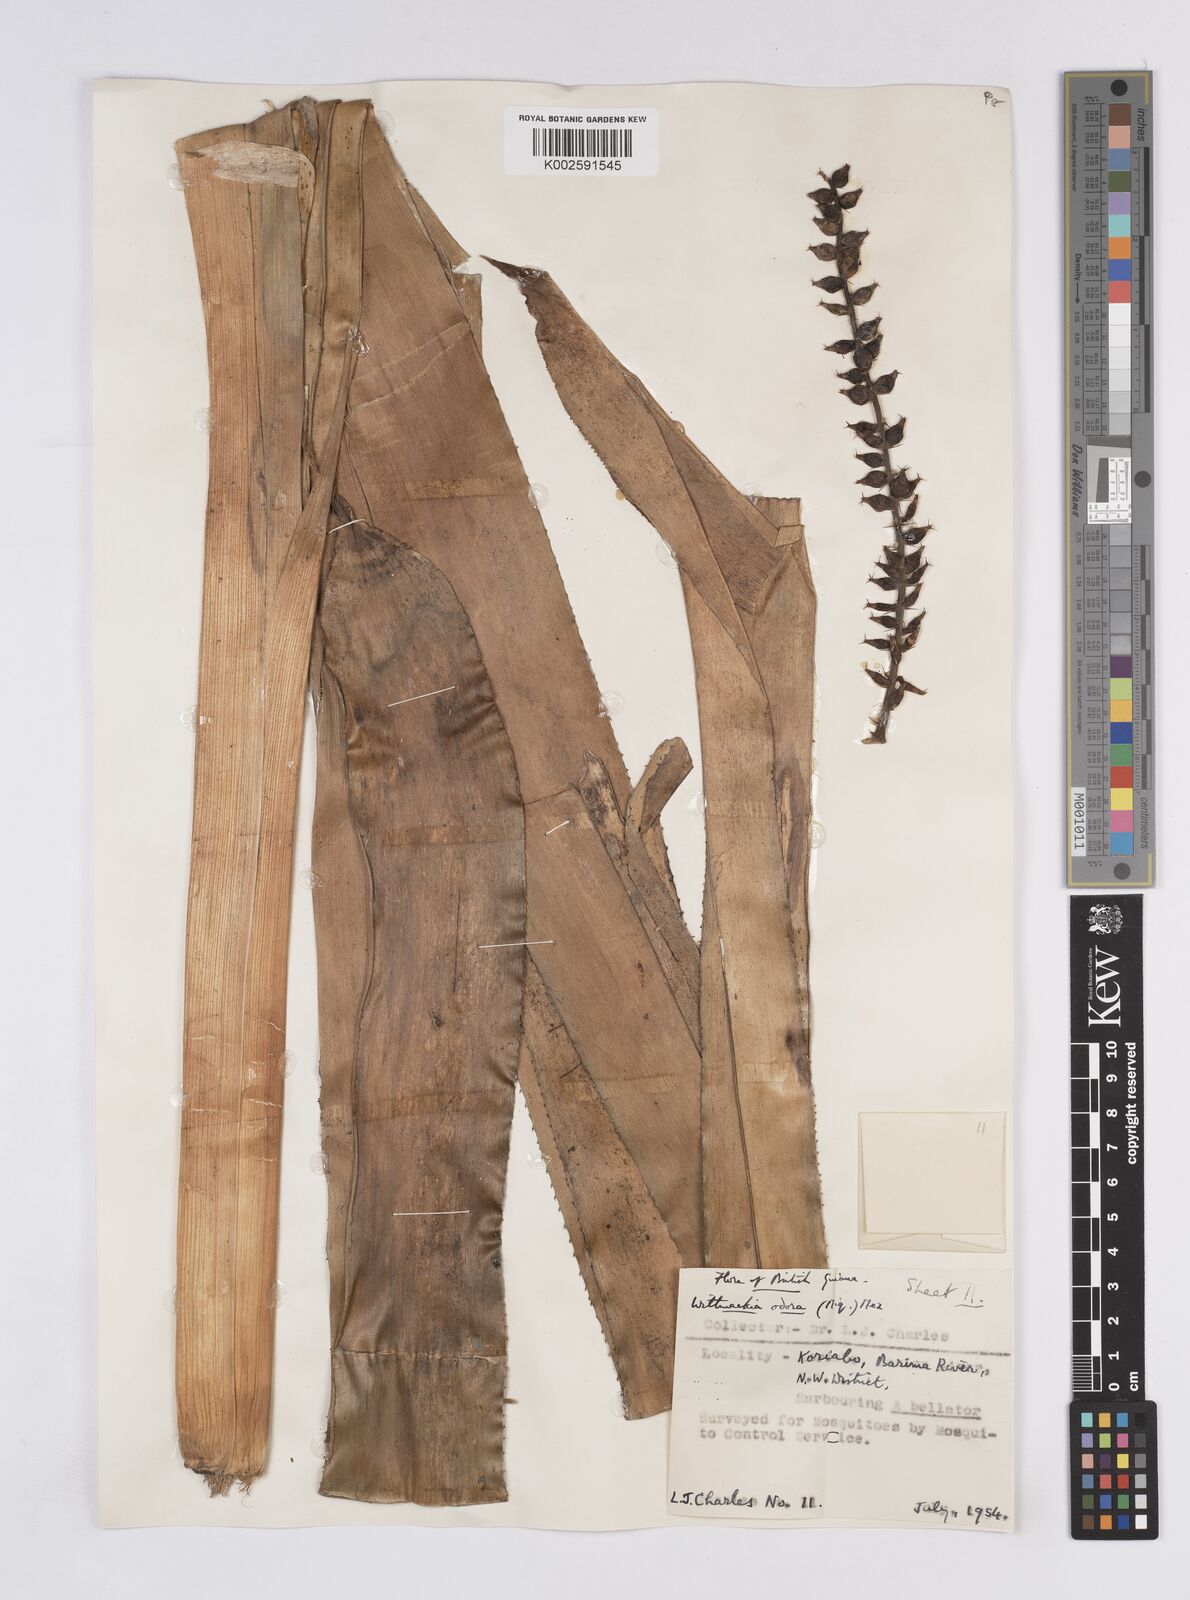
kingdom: Plantae
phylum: Tracheophyta
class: Liliopsida
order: Poales
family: Bromeliaceae
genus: Aechmea
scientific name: Aechmea
